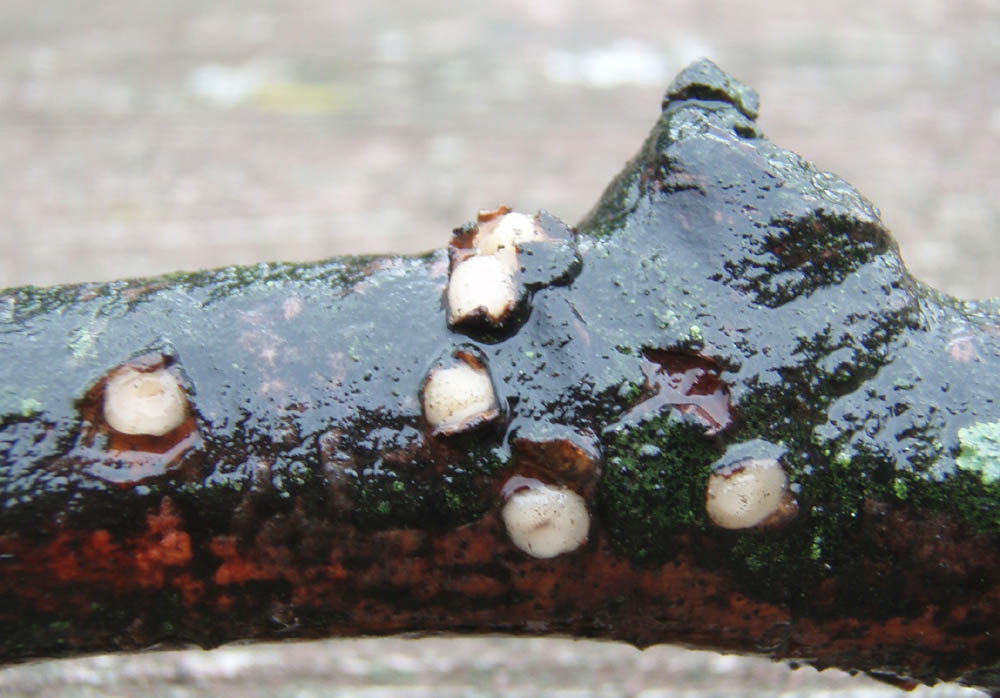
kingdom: Fungi
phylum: Basidiomycota
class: Pucciniomycetes
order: Platygloeales
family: Platygloeaceae
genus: Platygloea
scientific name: Platygloea disciformis
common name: linde-slimklat
